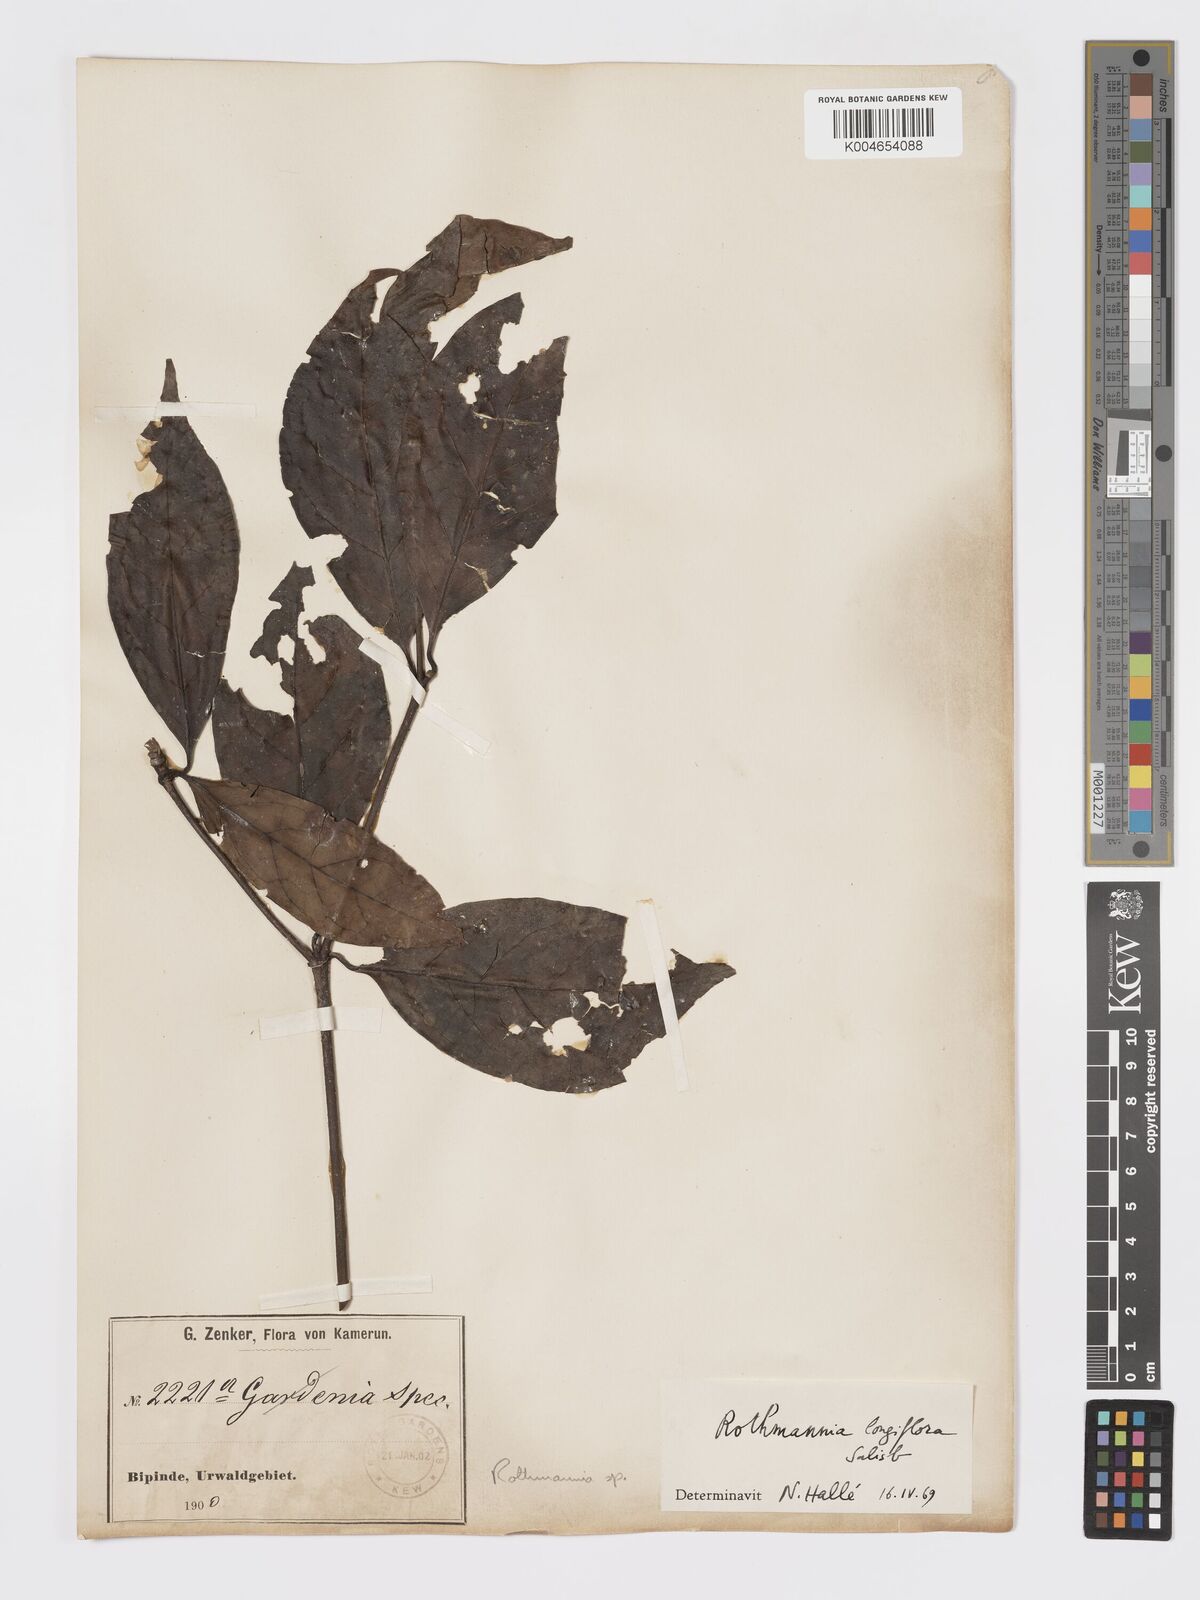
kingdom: Plantae
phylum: Tracheophyta
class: Magnoliopsida
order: Gentianales
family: Rubiaceae
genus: Rothmannia
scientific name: Rothmannia longiflora
